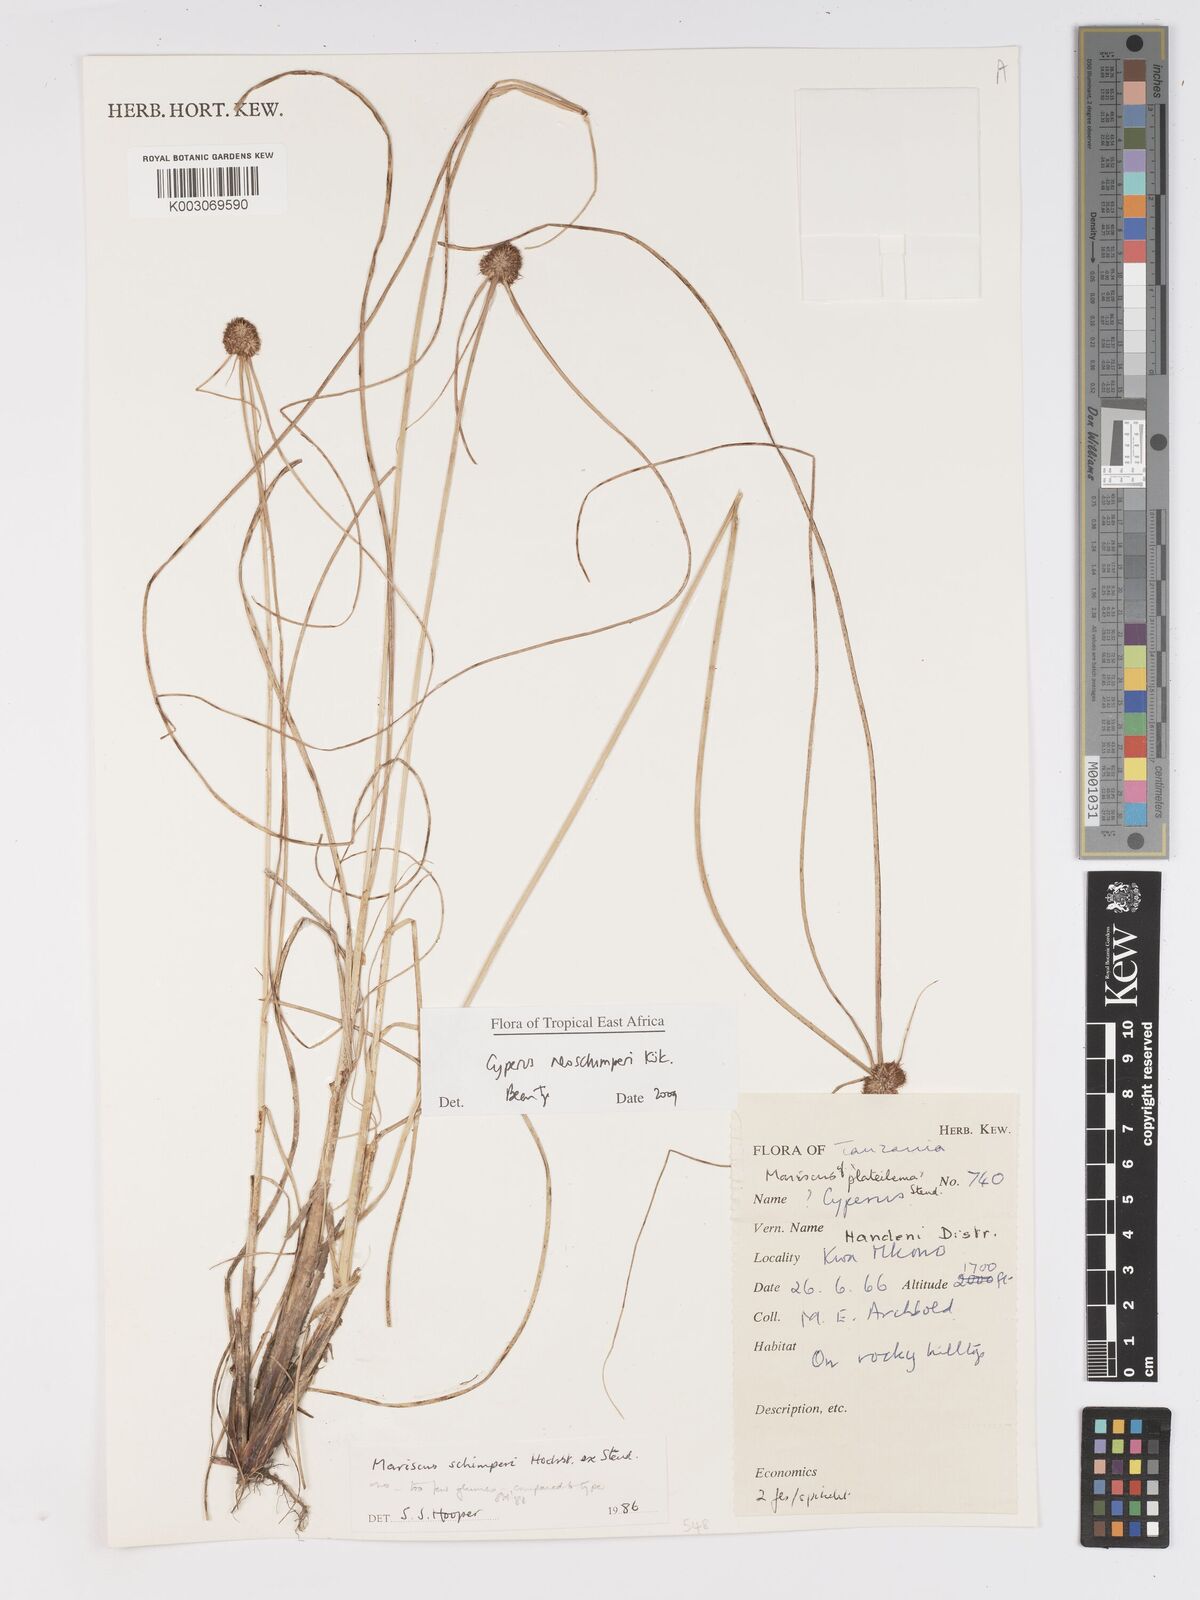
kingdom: Plantae
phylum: Tracheophyta
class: Liliopsida
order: Poales
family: Cyperaceae
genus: Cyperus
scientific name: Cyperus cruentus
